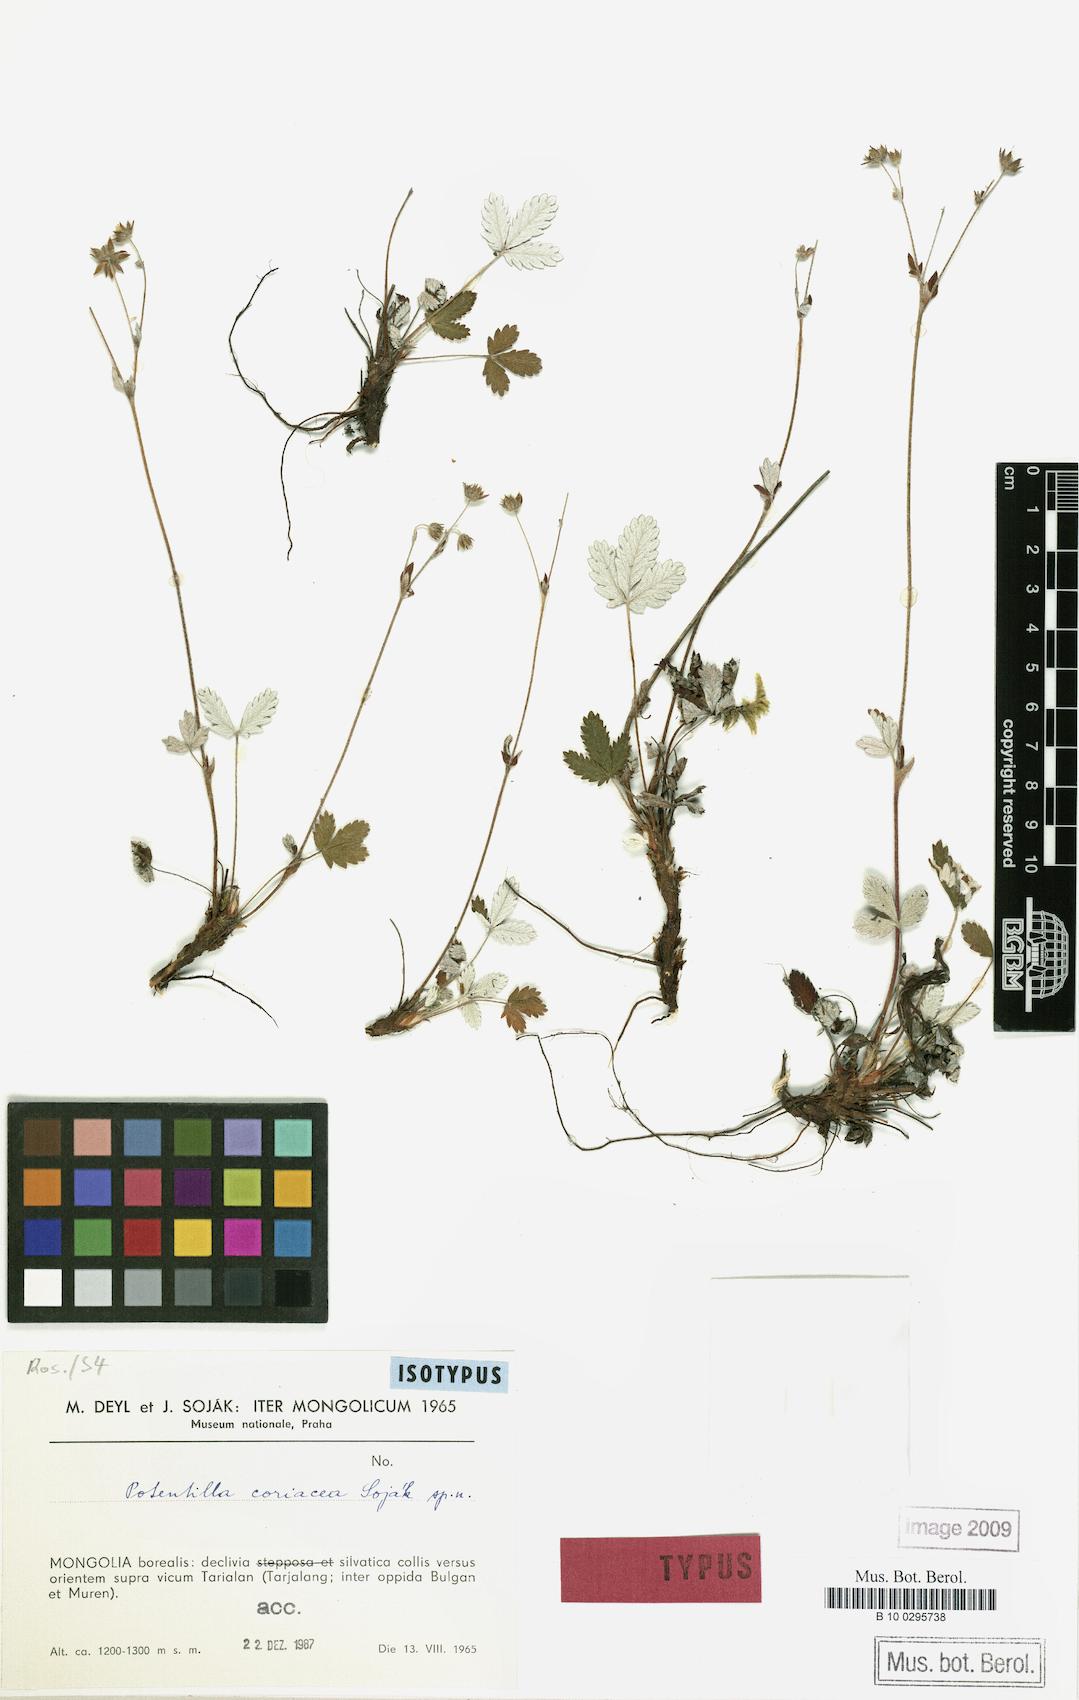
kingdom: Plantae
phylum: Tracheophyta
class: Magnoliopsida
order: Rosales
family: Rosaceae
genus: Potentilla
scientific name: Potentilla coriacea
